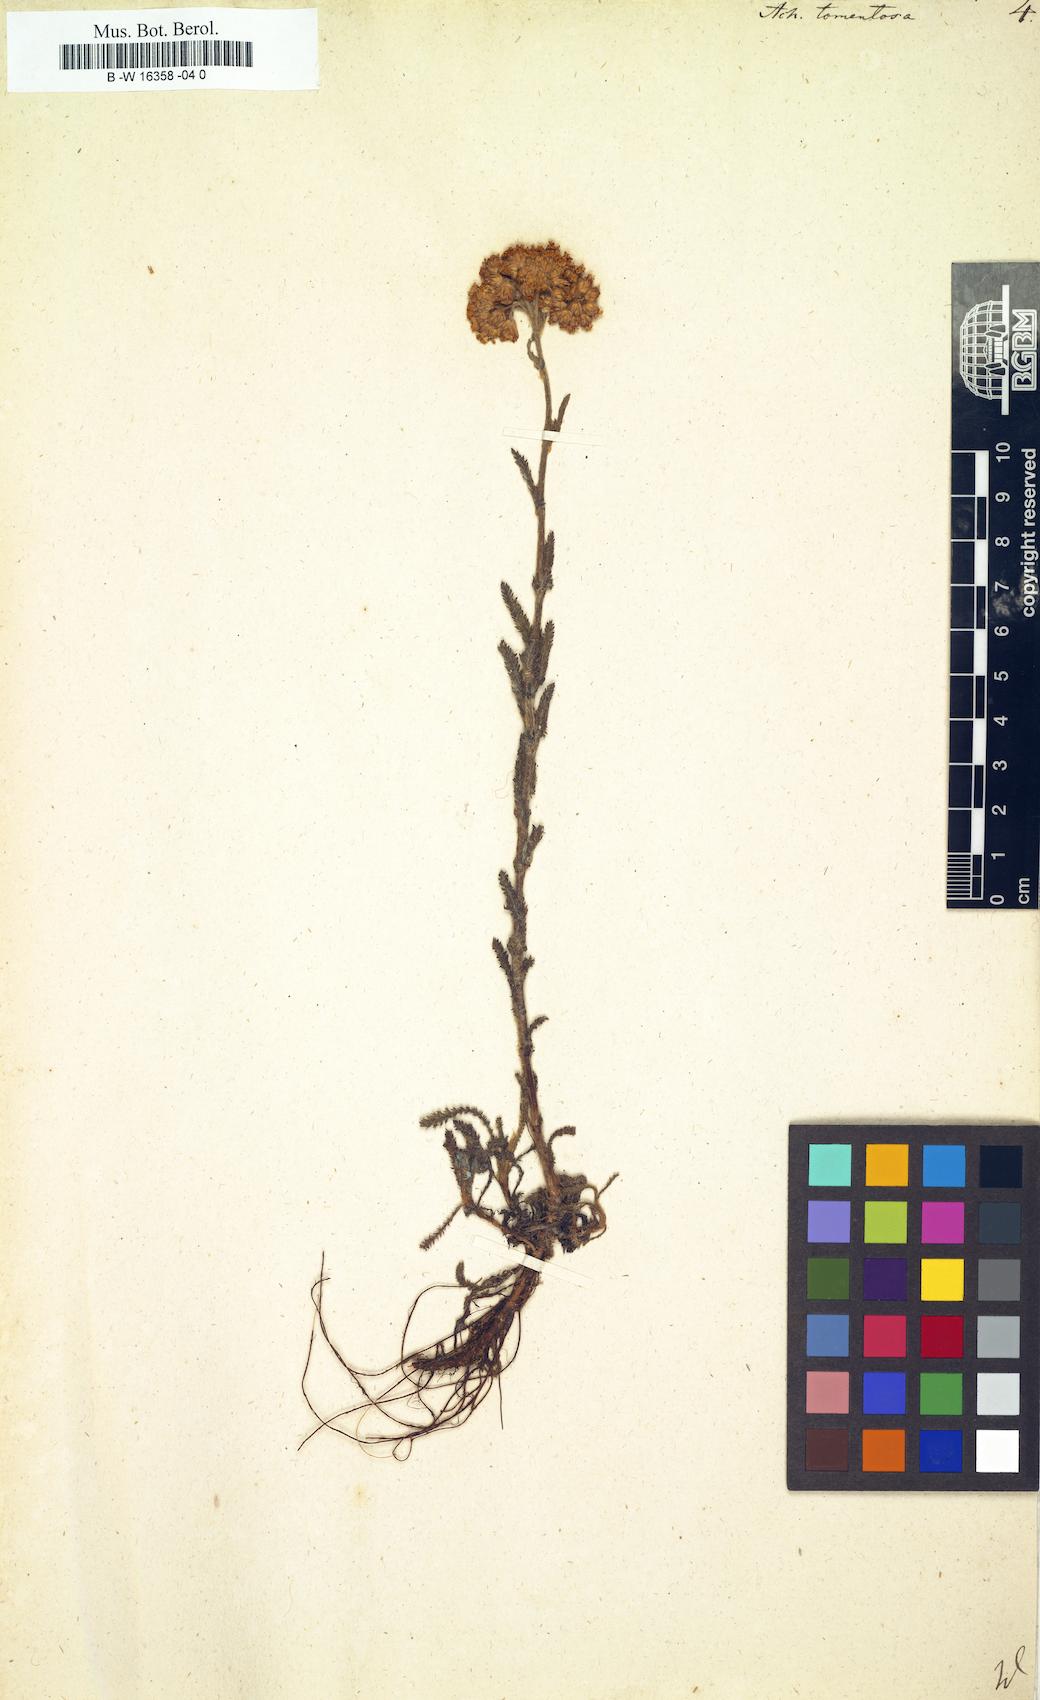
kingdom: Plantae
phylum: Tracheophyta
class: Magnoliopsida
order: Asterales
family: Asteraceae
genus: Achillea
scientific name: Achillea tomentosa
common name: Yellow milfoil
